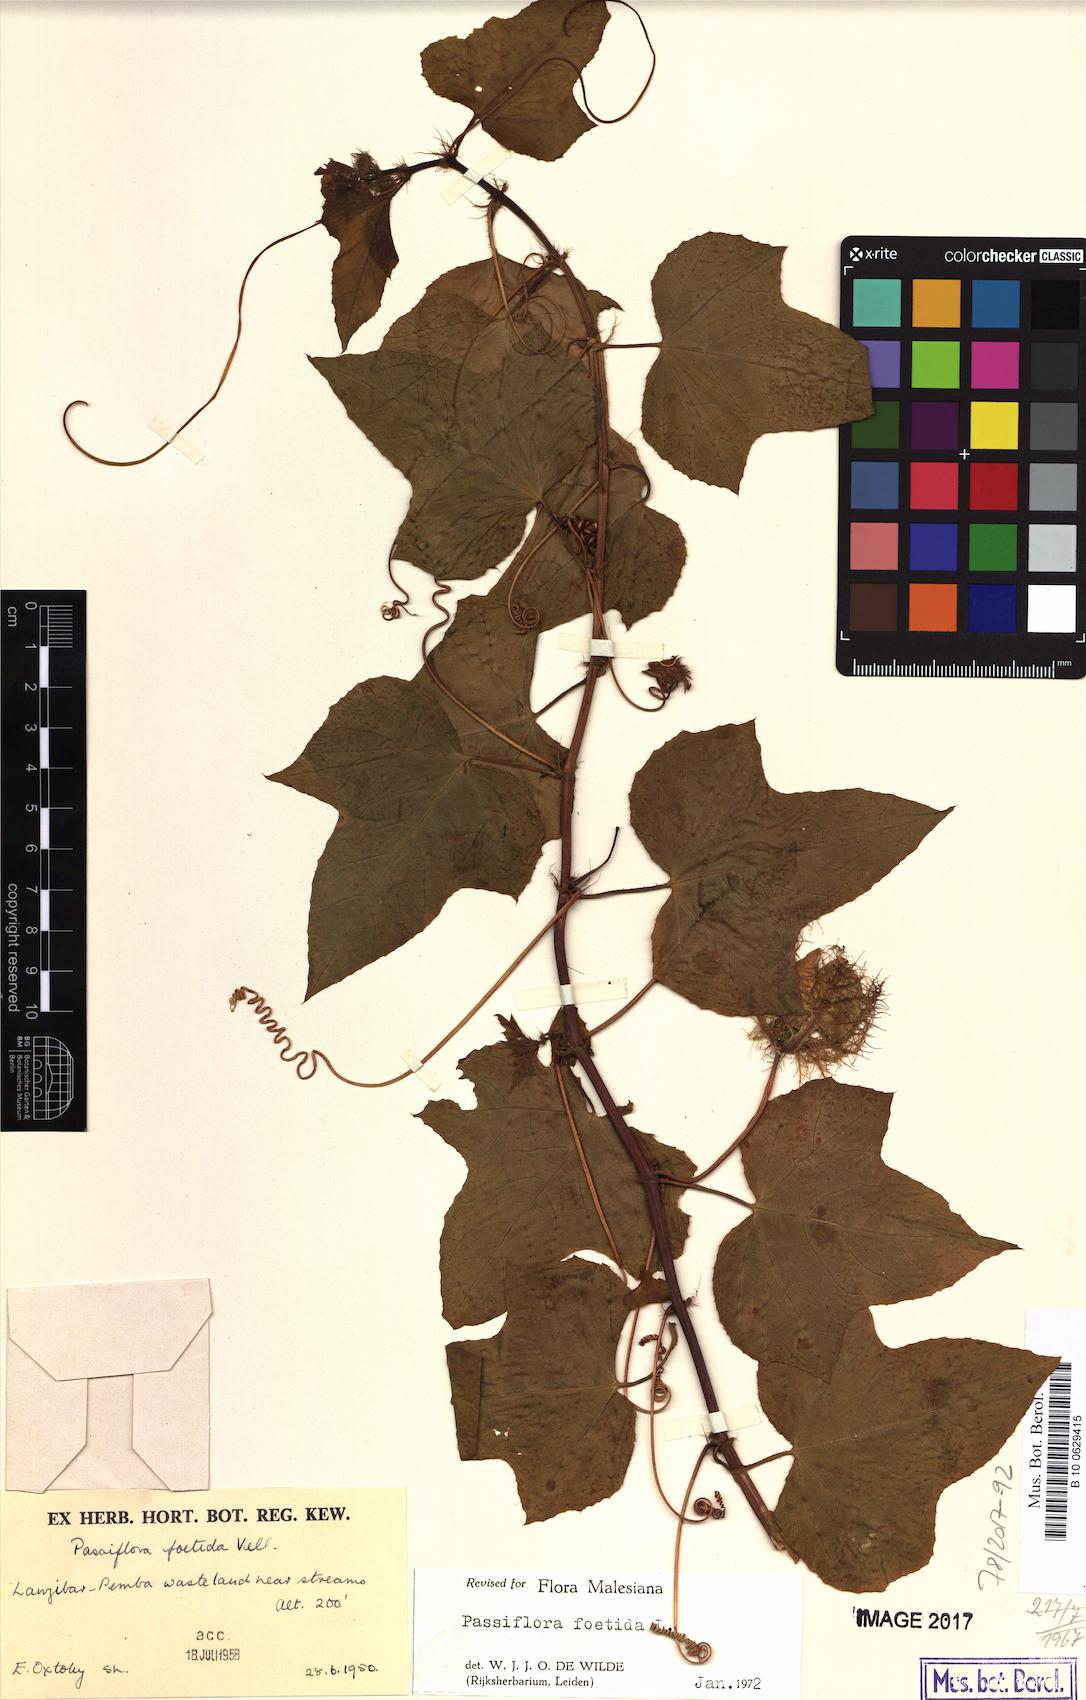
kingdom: Plantae
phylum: Tracheophyta
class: Magnoliopsida
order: Malpighiales
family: Passifloraceae
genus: Passiflora
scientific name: Passiflora foetida
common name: Fetid passionflower
